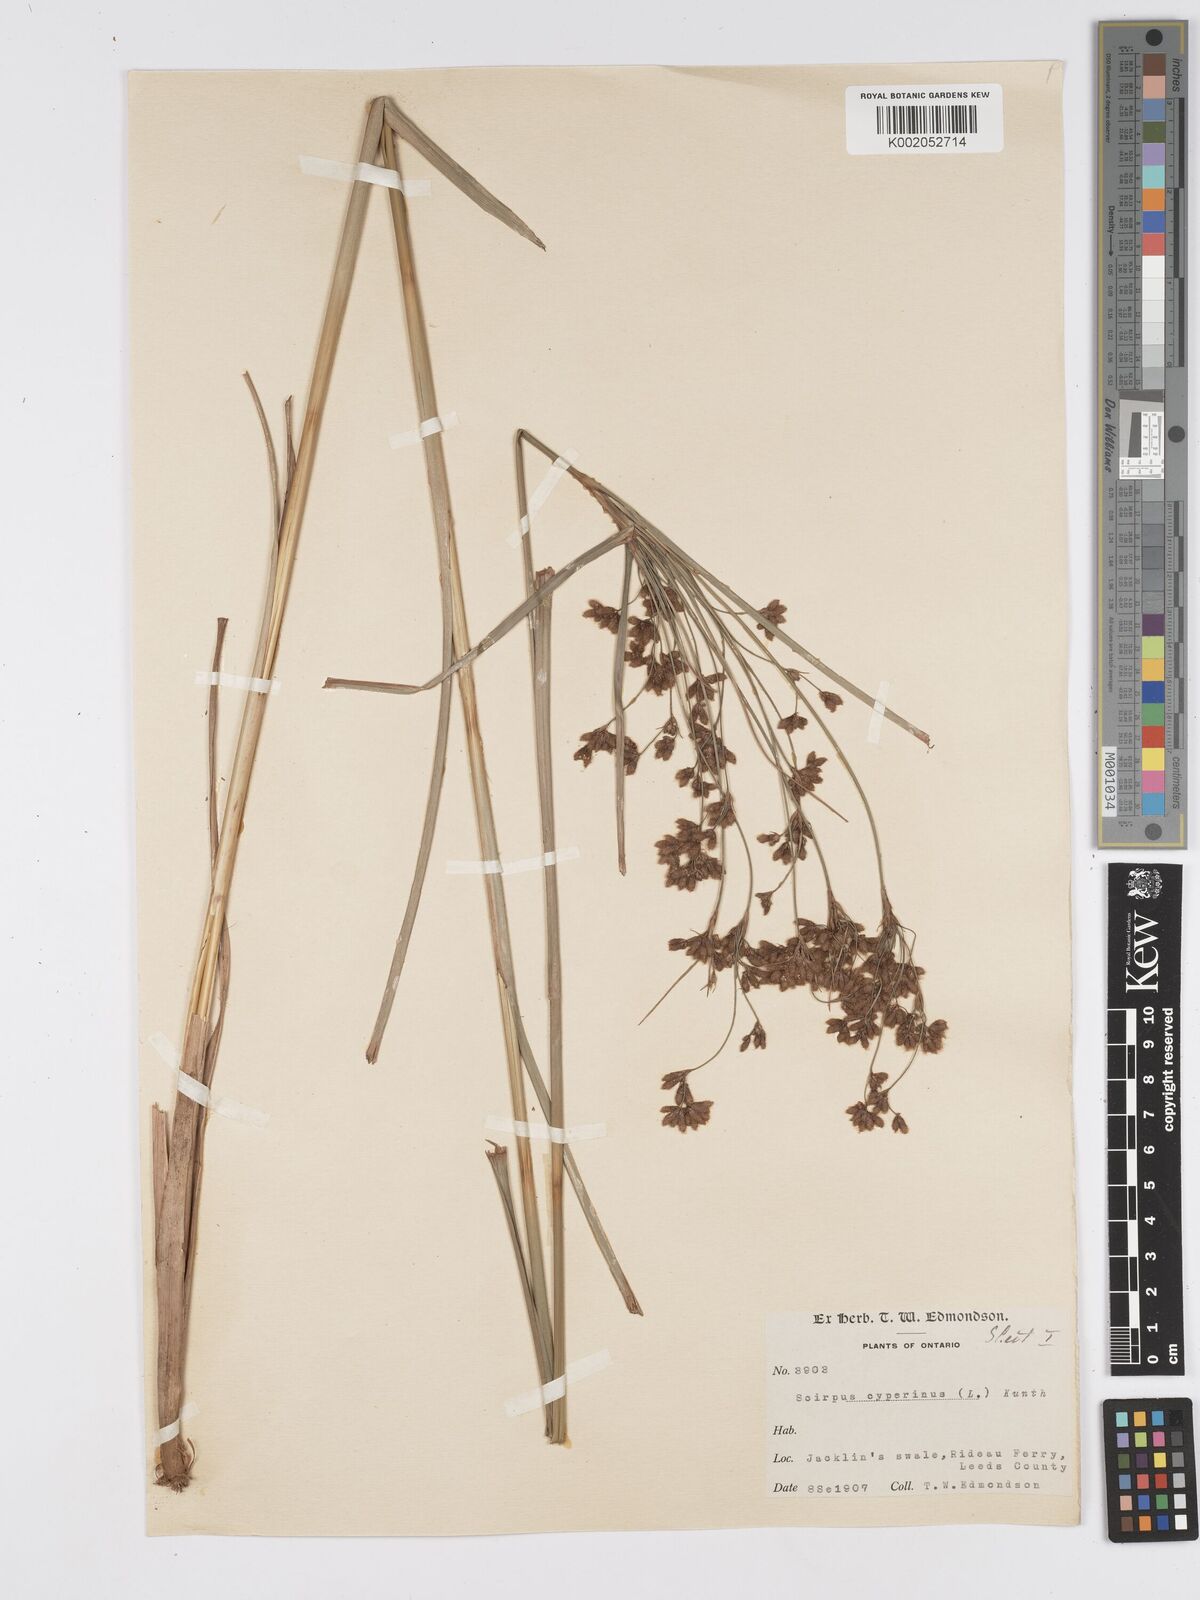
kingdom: Plantae
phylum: Tracheophyta
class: Liliopsida
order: Poales
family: Cyperaceae
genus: Scirpus
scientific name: Scirpus cyperinus
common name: Black-sheathed bulrush
